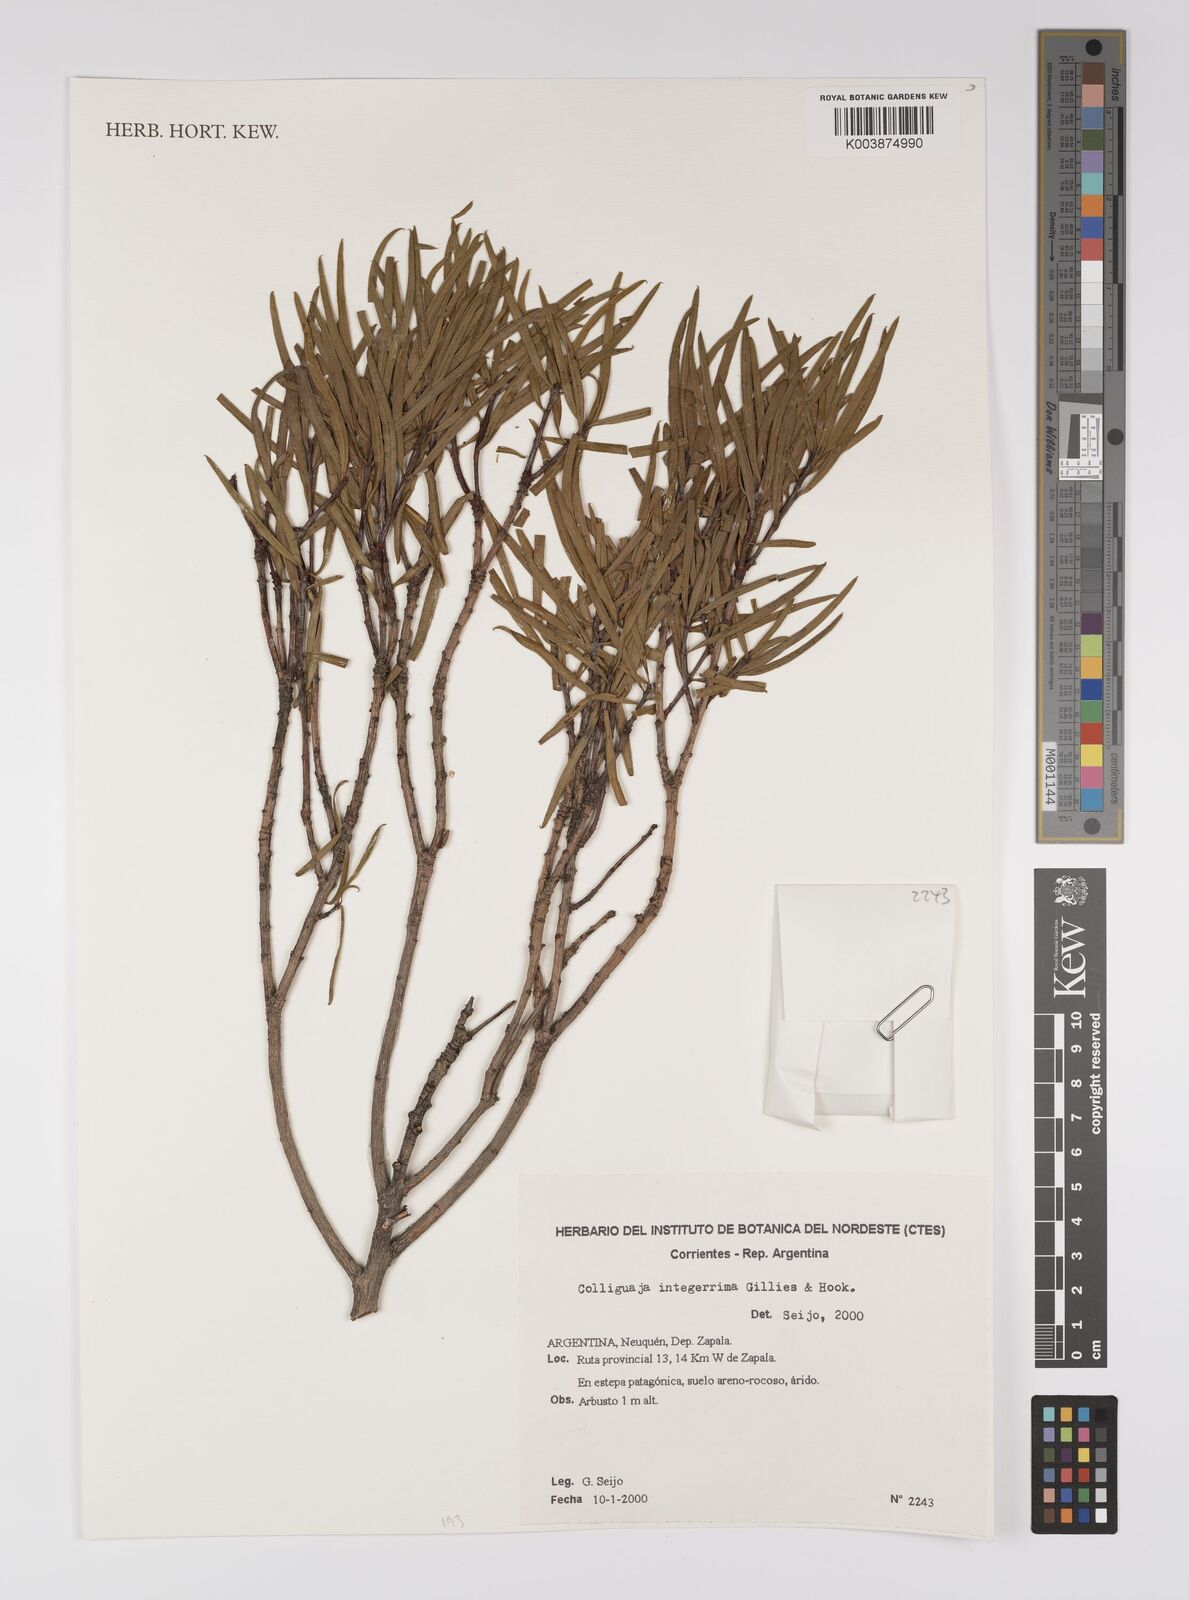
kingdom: Plantae
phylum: Tracheophyta
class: Magnoliopsida
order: Malpighiales
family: Euphorbiaceae
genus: Colliguaja
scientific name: Colliguaja integerrima
